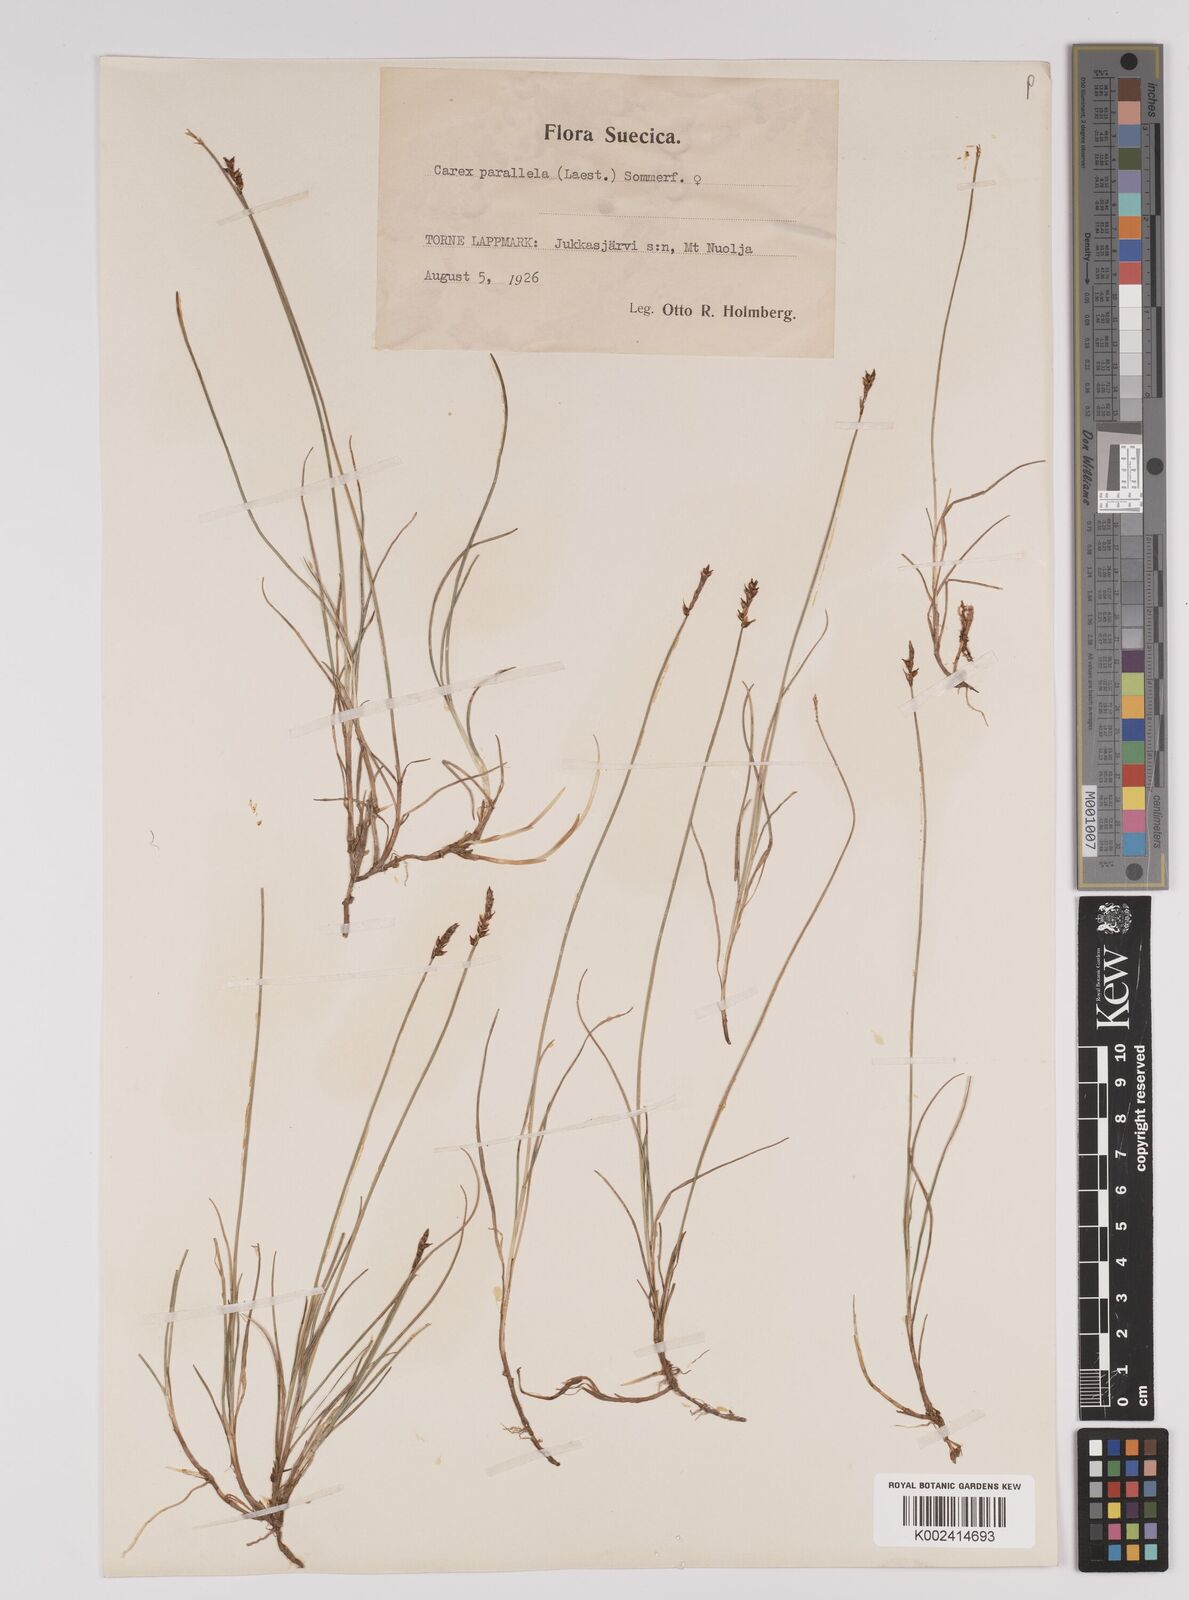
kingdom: Plantae
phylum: Tracheophyta
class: Liliopsida
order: Poales
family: Cyperaceae
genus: Carex
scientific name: Carex parallela
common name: Parallel sedge
